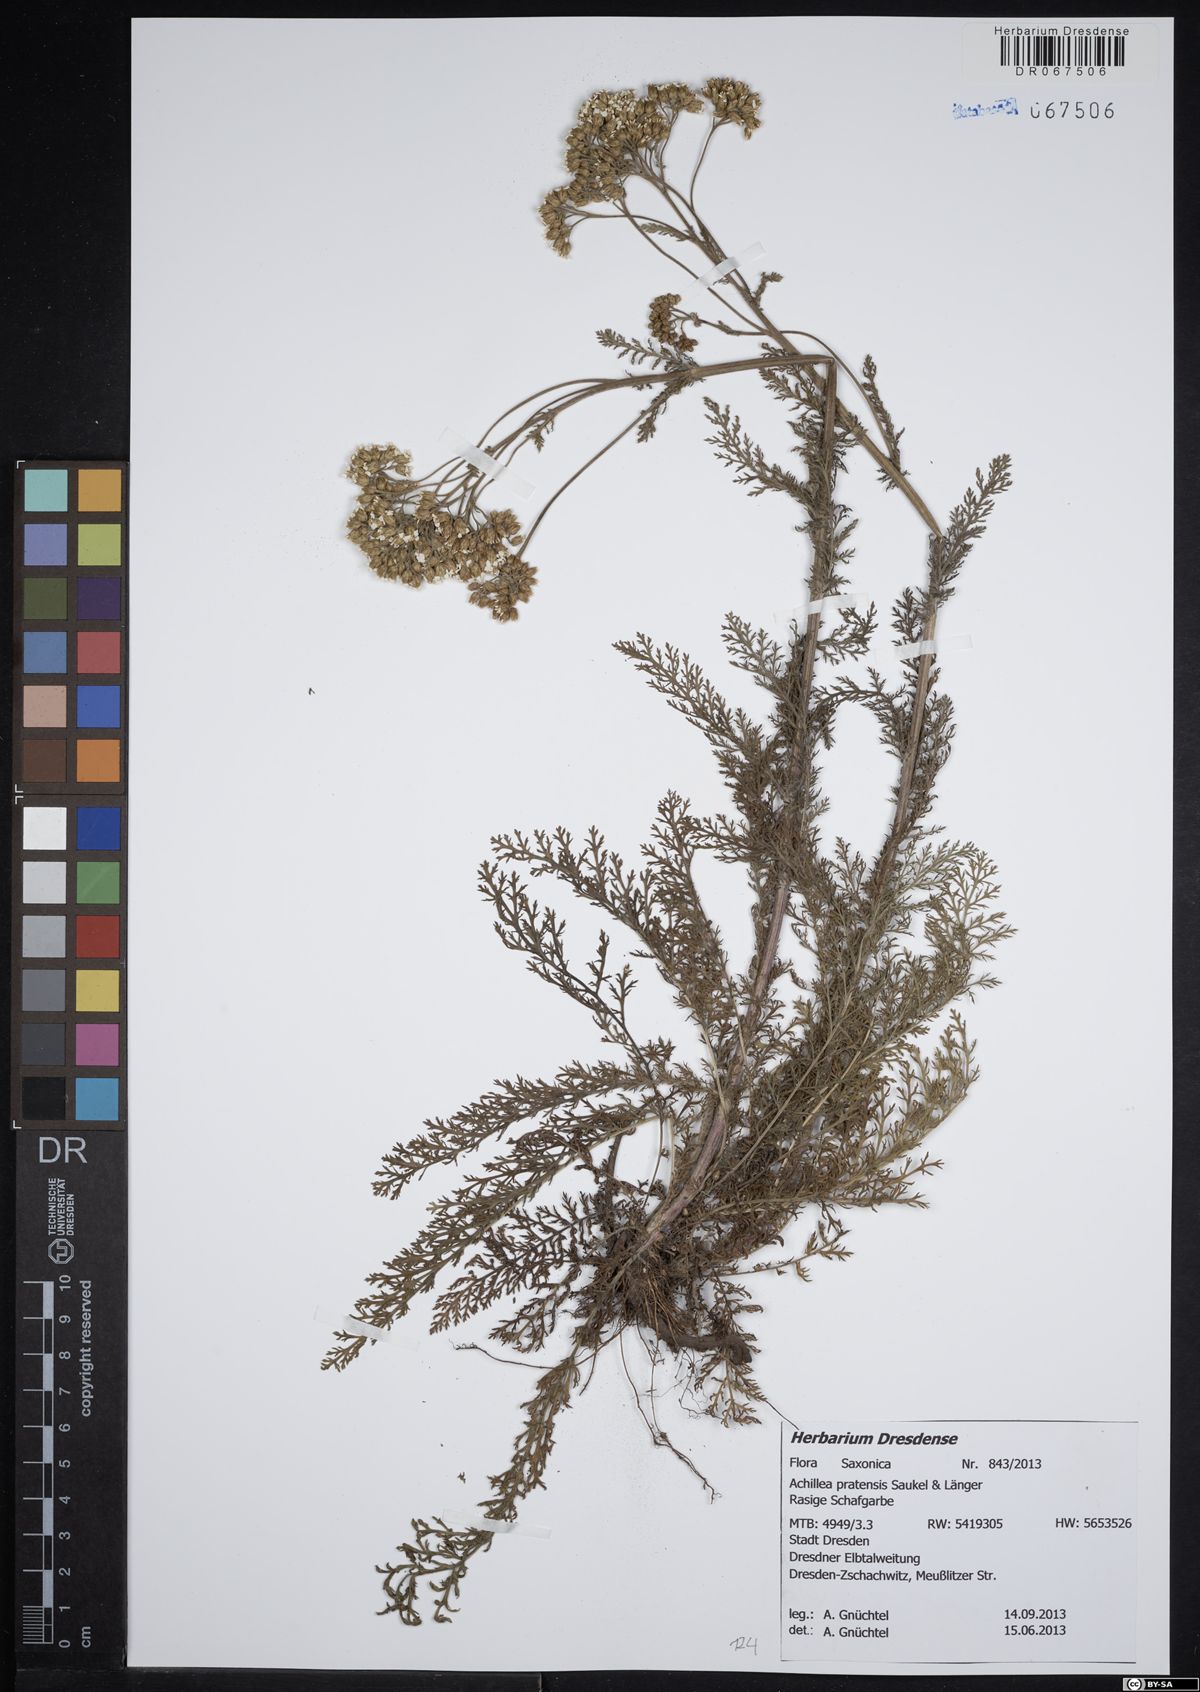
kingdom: Plantae
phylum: Tracheophyta
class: Magnoliopsida
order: Asterales
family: Asteraceae
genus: Achillea
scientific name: Achillea pratensis
